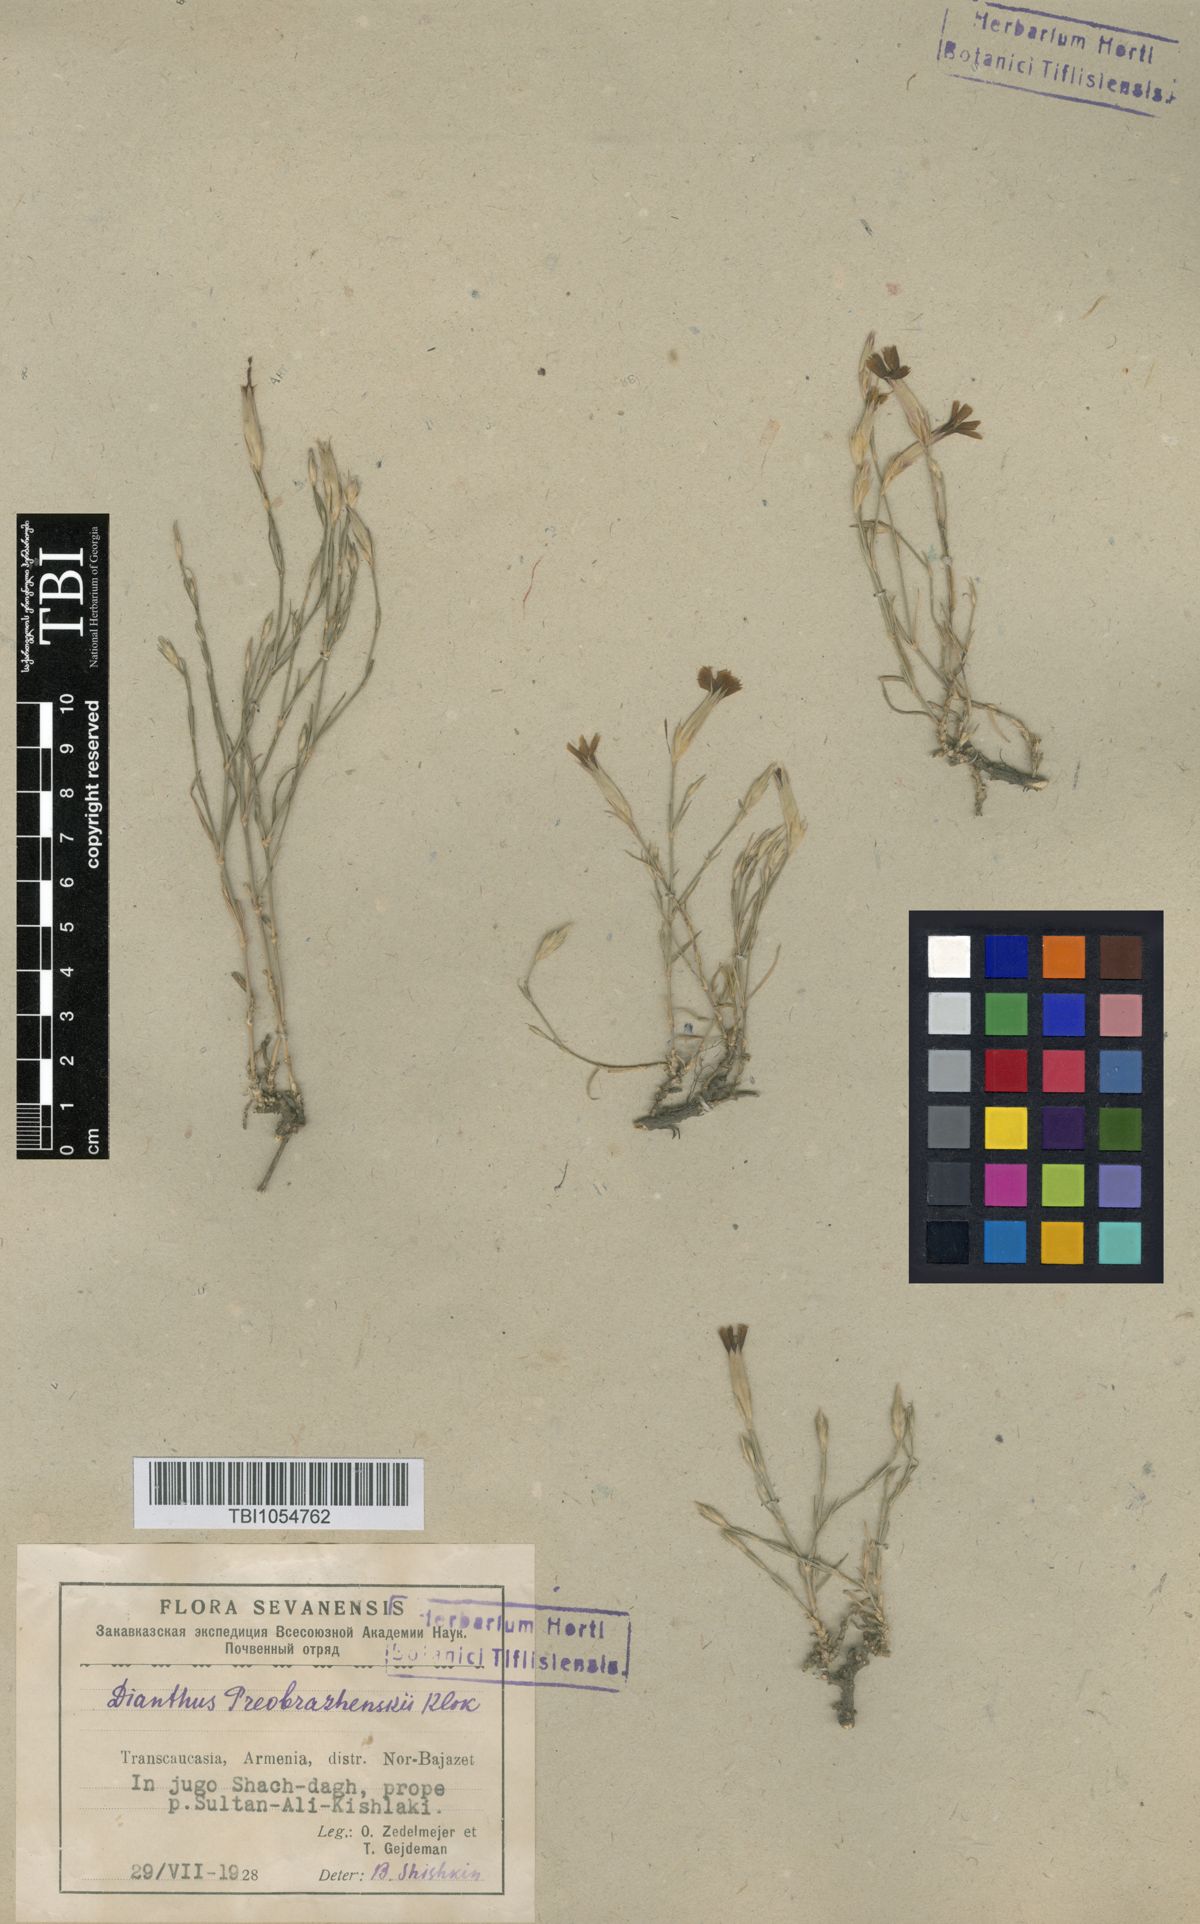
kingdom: Plantae
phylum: Tracheophyta
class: Magnoliopsida
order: Caryophyllales
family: Caryophyllaceae
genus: Dianthus
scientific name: Dianthus bicolor
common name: Bicolour pink
